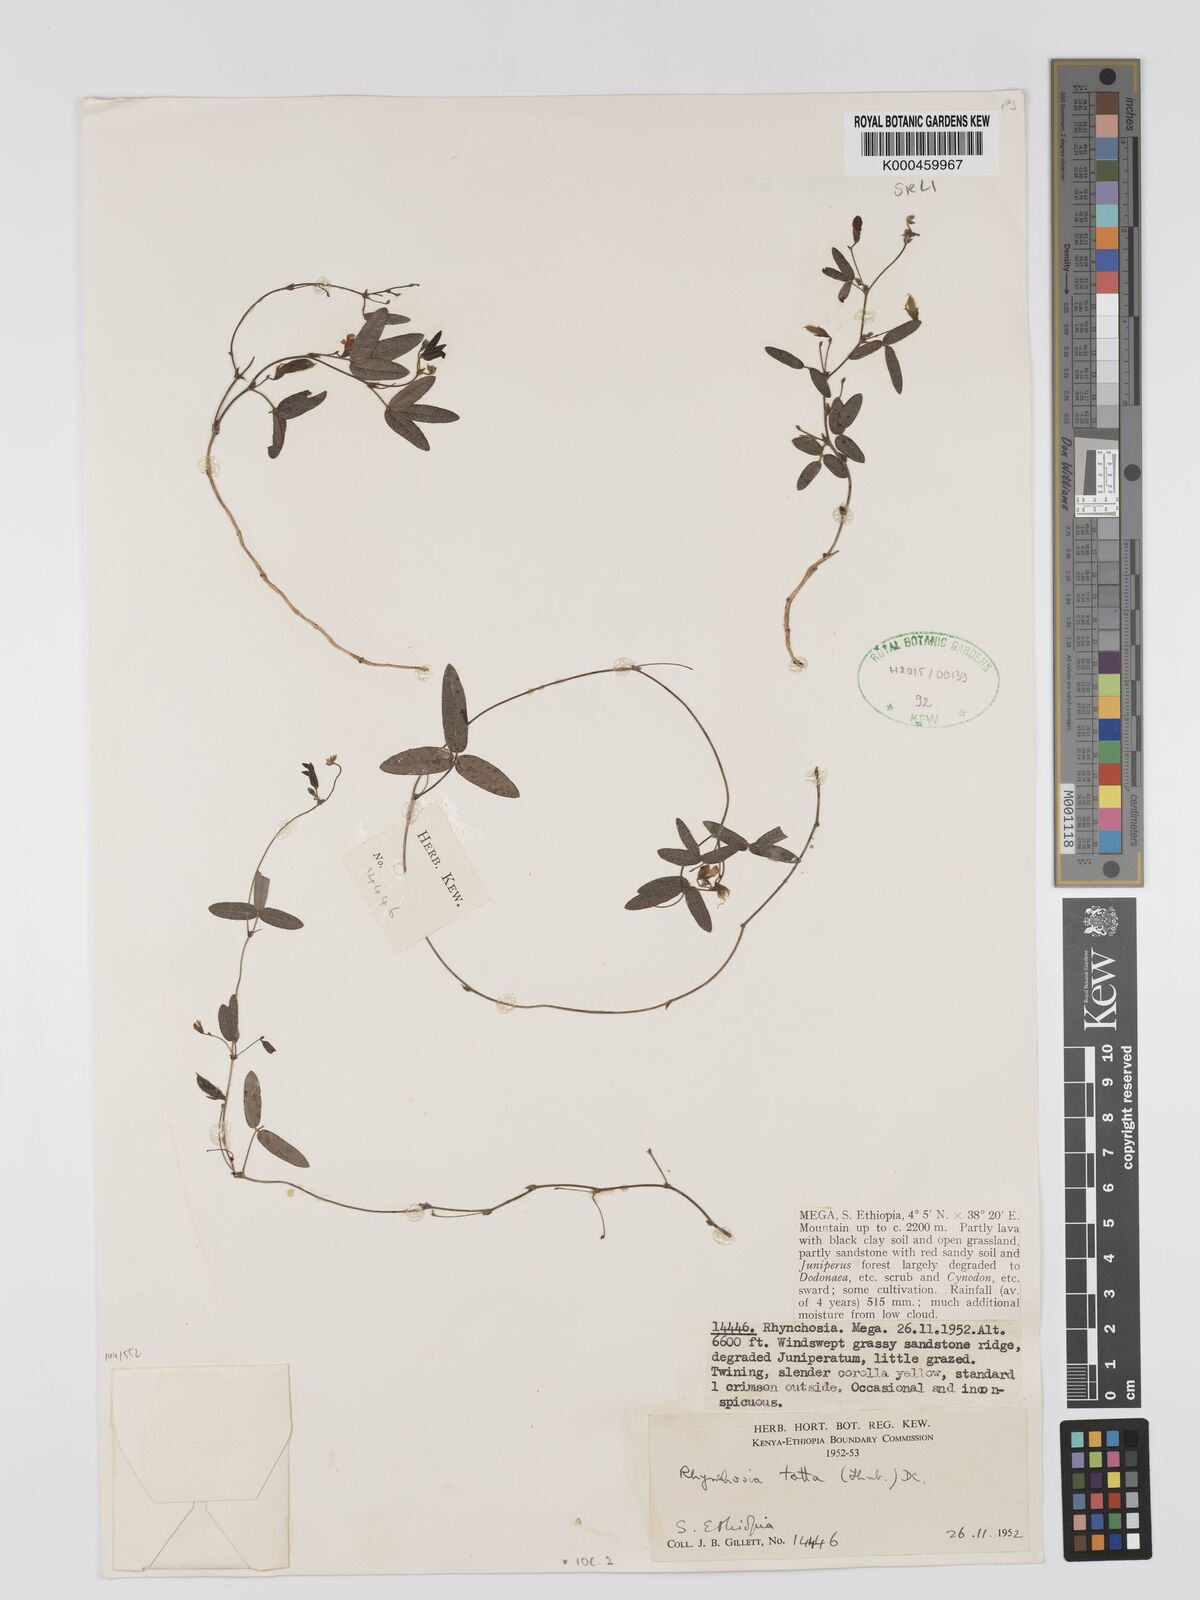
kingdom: Plantae
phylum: Tracheophyta
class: Magnoliopsida
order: Fabales
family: Fabaceae
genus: Rhynchosia
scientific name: Rhynchosia totta
